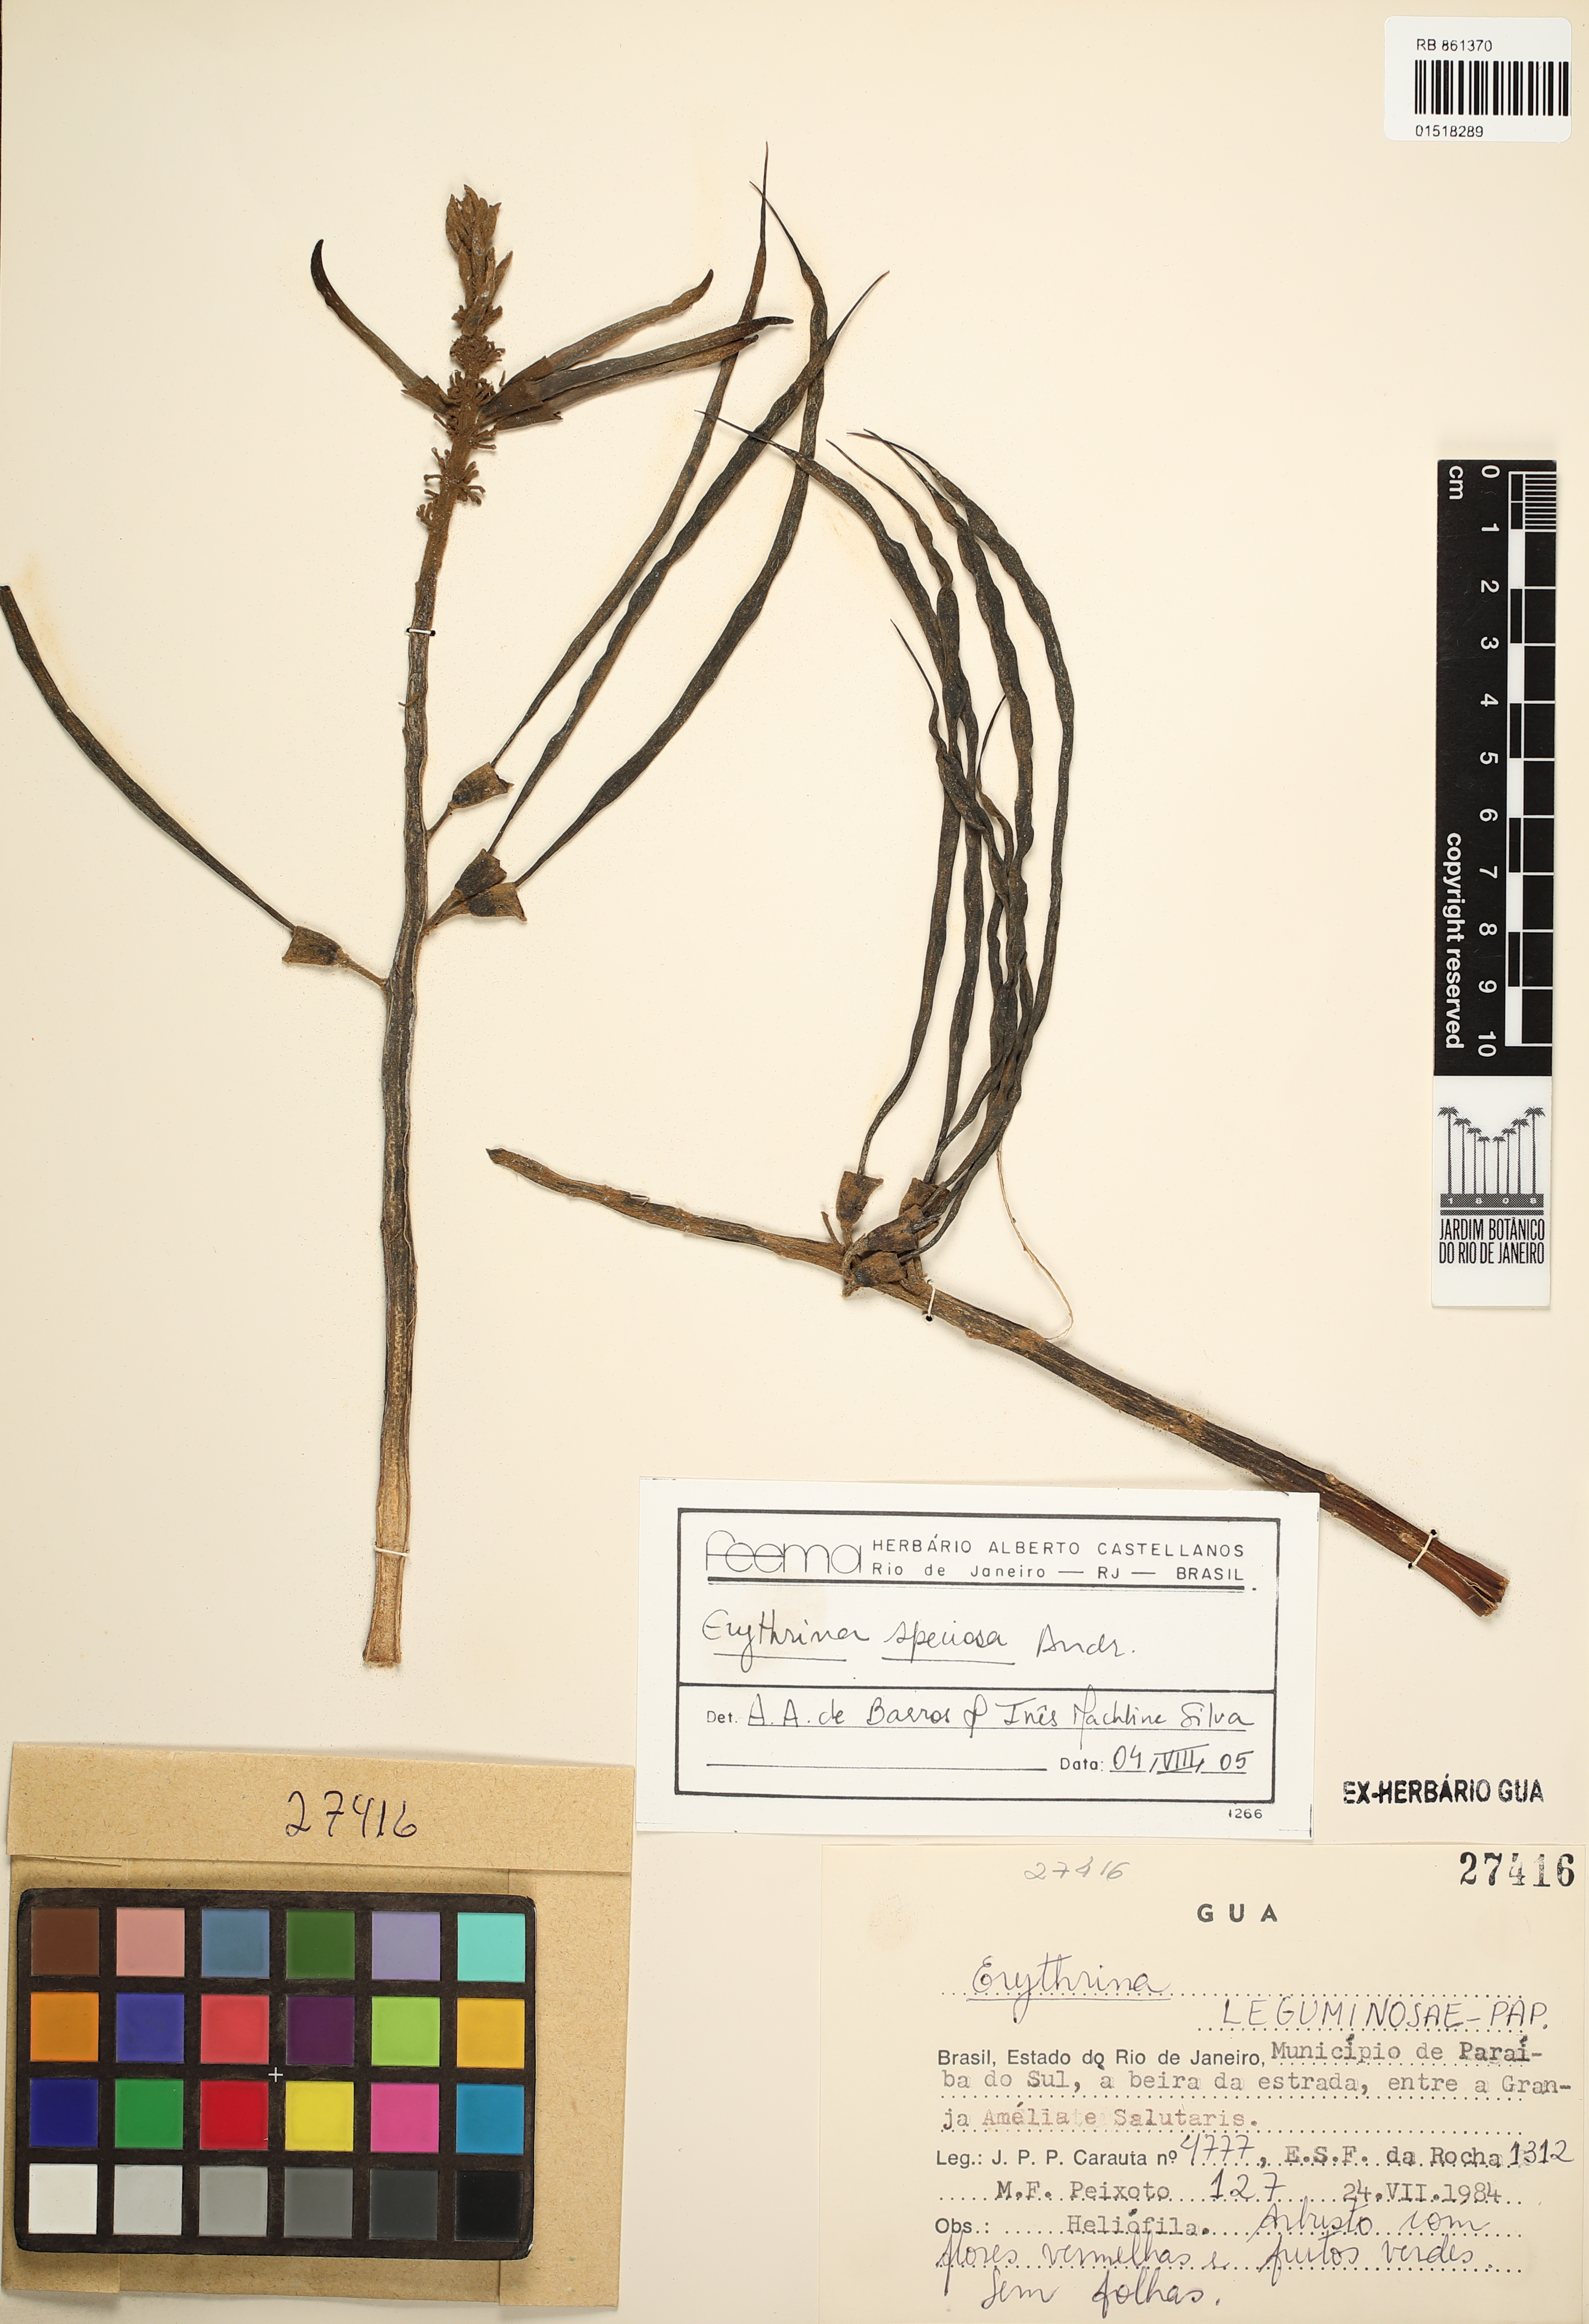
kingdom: Plantae
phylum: Tracheophyta
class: Magnoliopsida
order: Fabales
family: Fabaceae
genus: Erythrina
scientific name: Erythrina speciosa
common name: Coral tree
